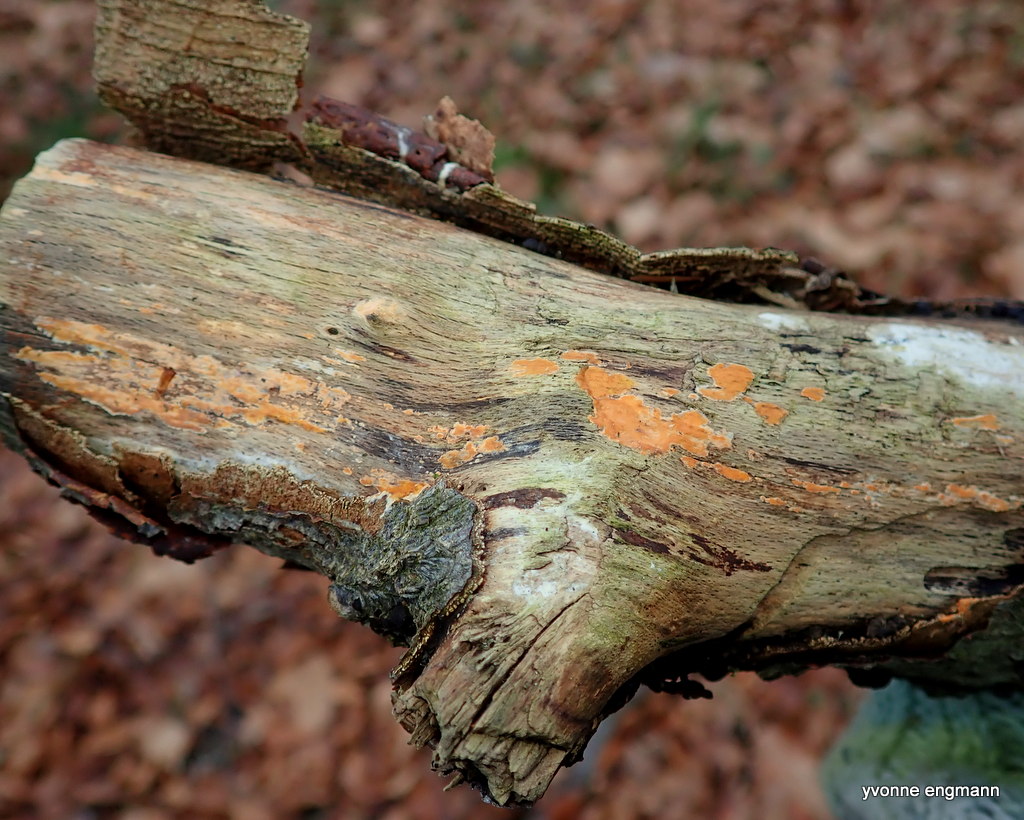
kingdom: Fungi
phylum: Basidiomycota
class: Agaricomycetes
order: Russulales
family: Peniophoraceae
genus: Peniophora
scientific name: Peniophora incarnata
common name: laksefarvet voksskind
